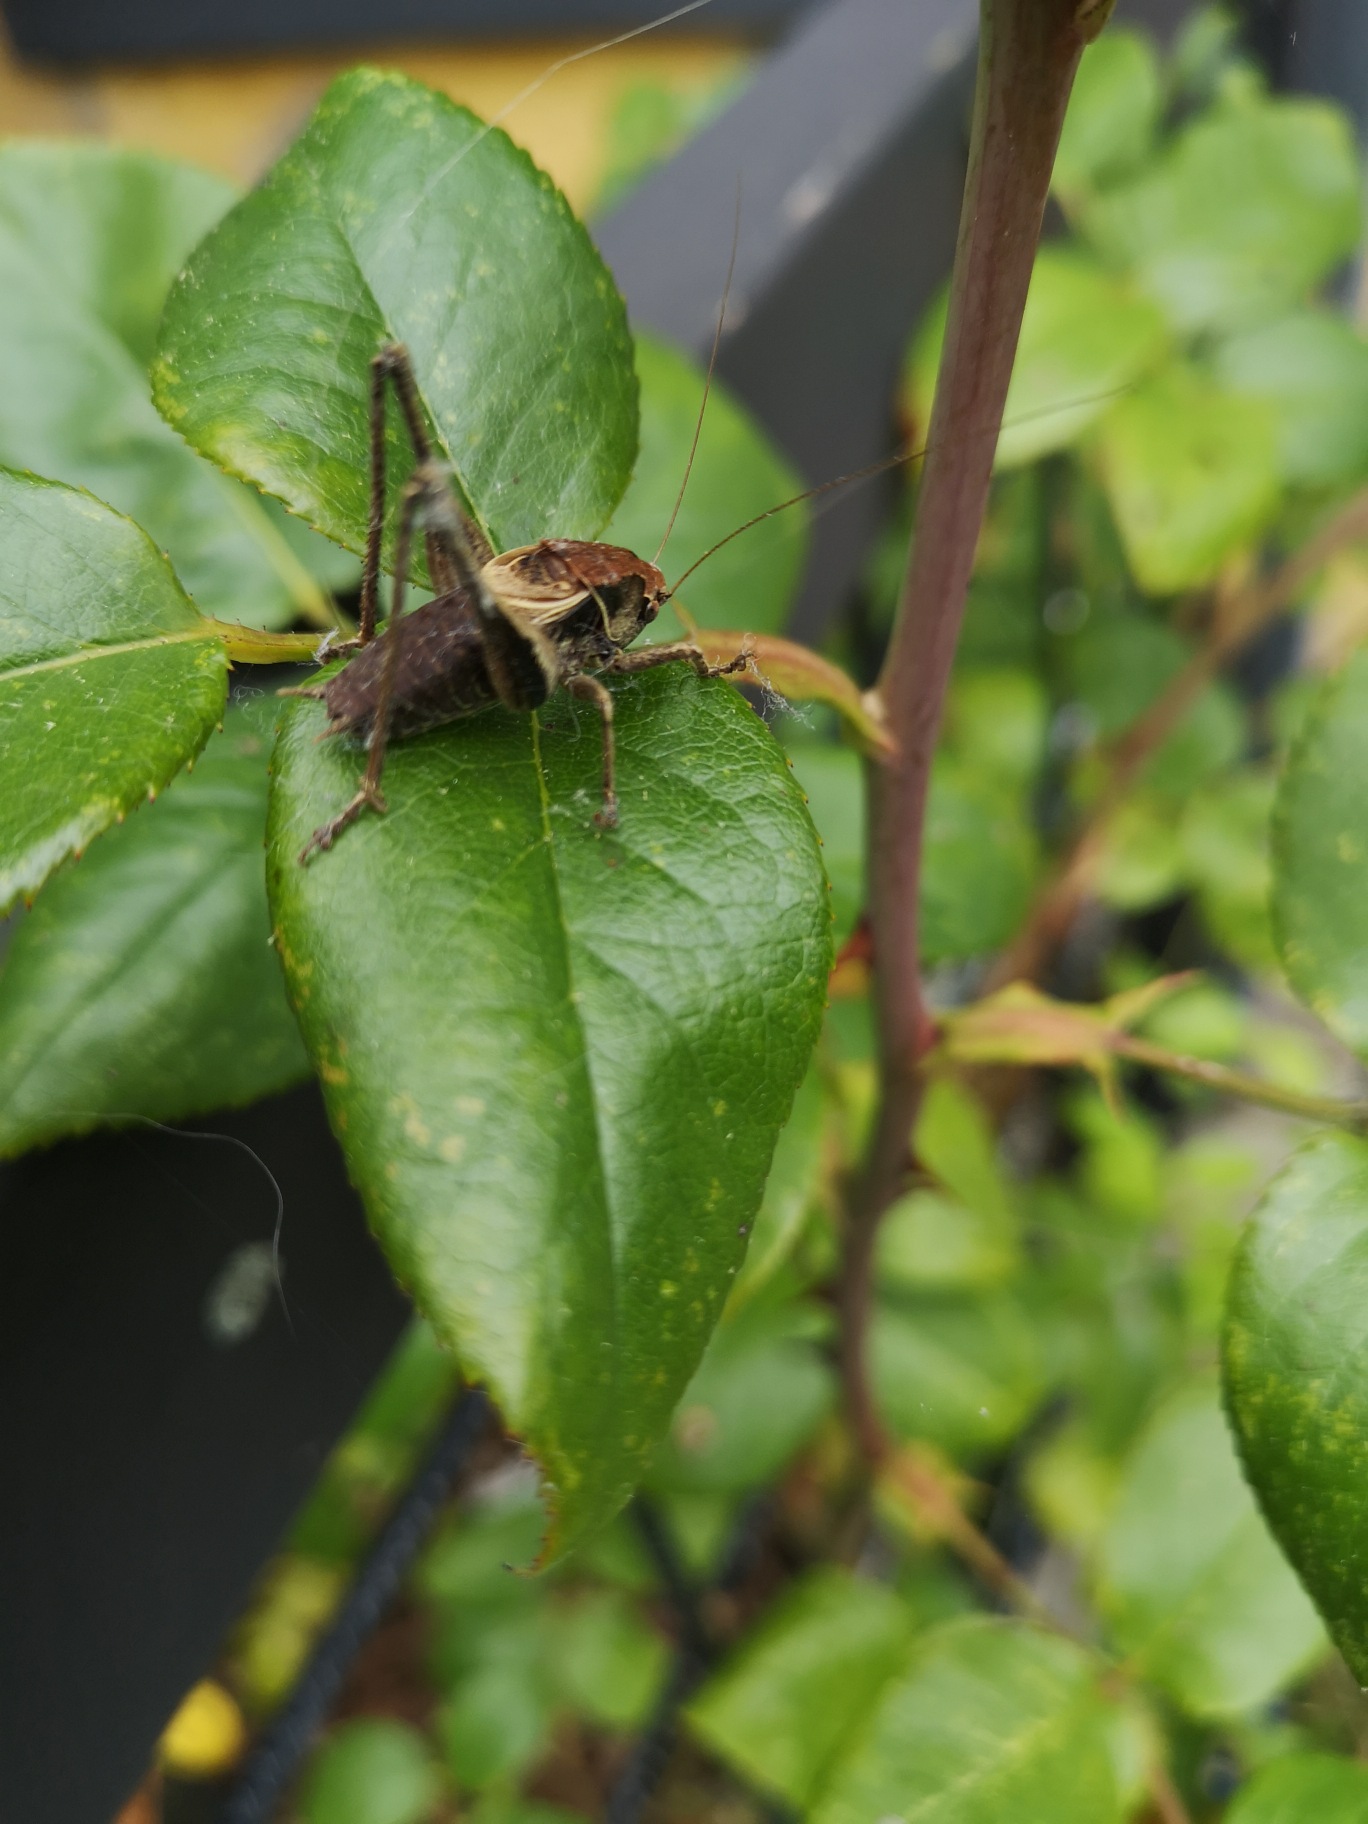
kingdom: Animalia
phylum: Arthropoda
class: Insecta
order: Orthoptera
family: Tettigoniidae
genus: Pholidoptera
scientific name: Pholidoptera griseoaptera
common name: Buskgræshoppe
